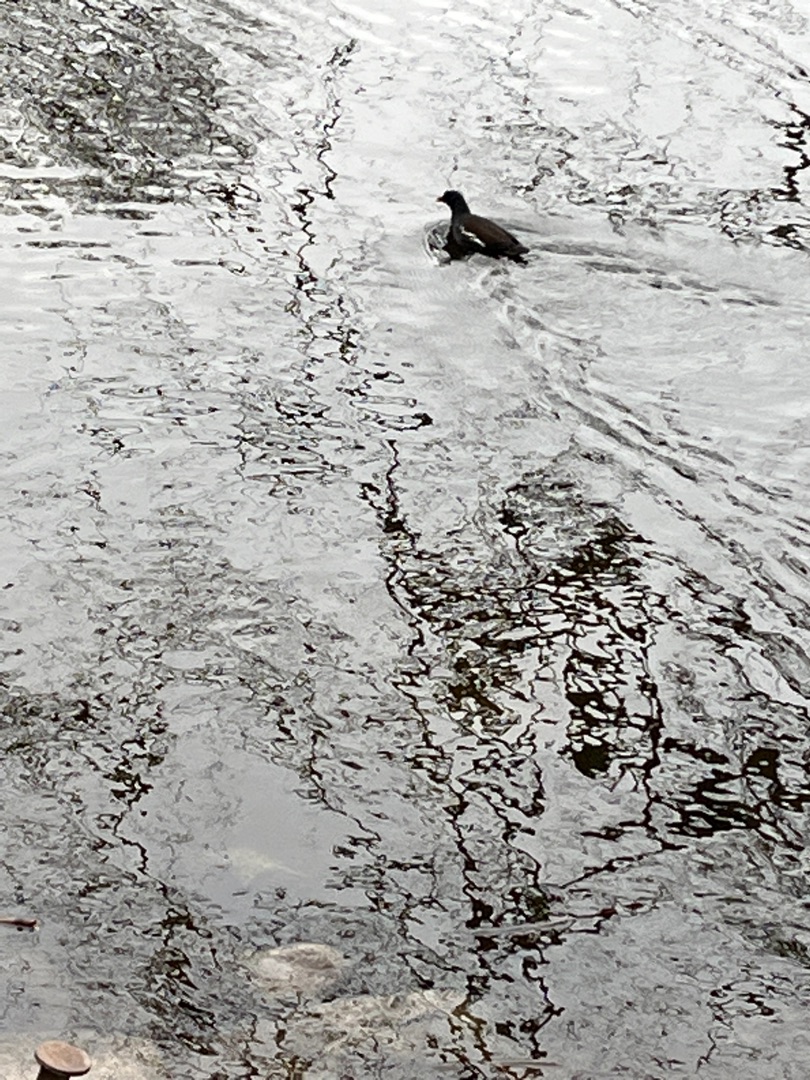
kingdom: Animalia
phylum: Chordata
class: Aves
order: Gruiformes
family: Rallidae
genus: Gallinula
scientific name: Gallinula chloropus
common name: Grønbenet rørhøne
